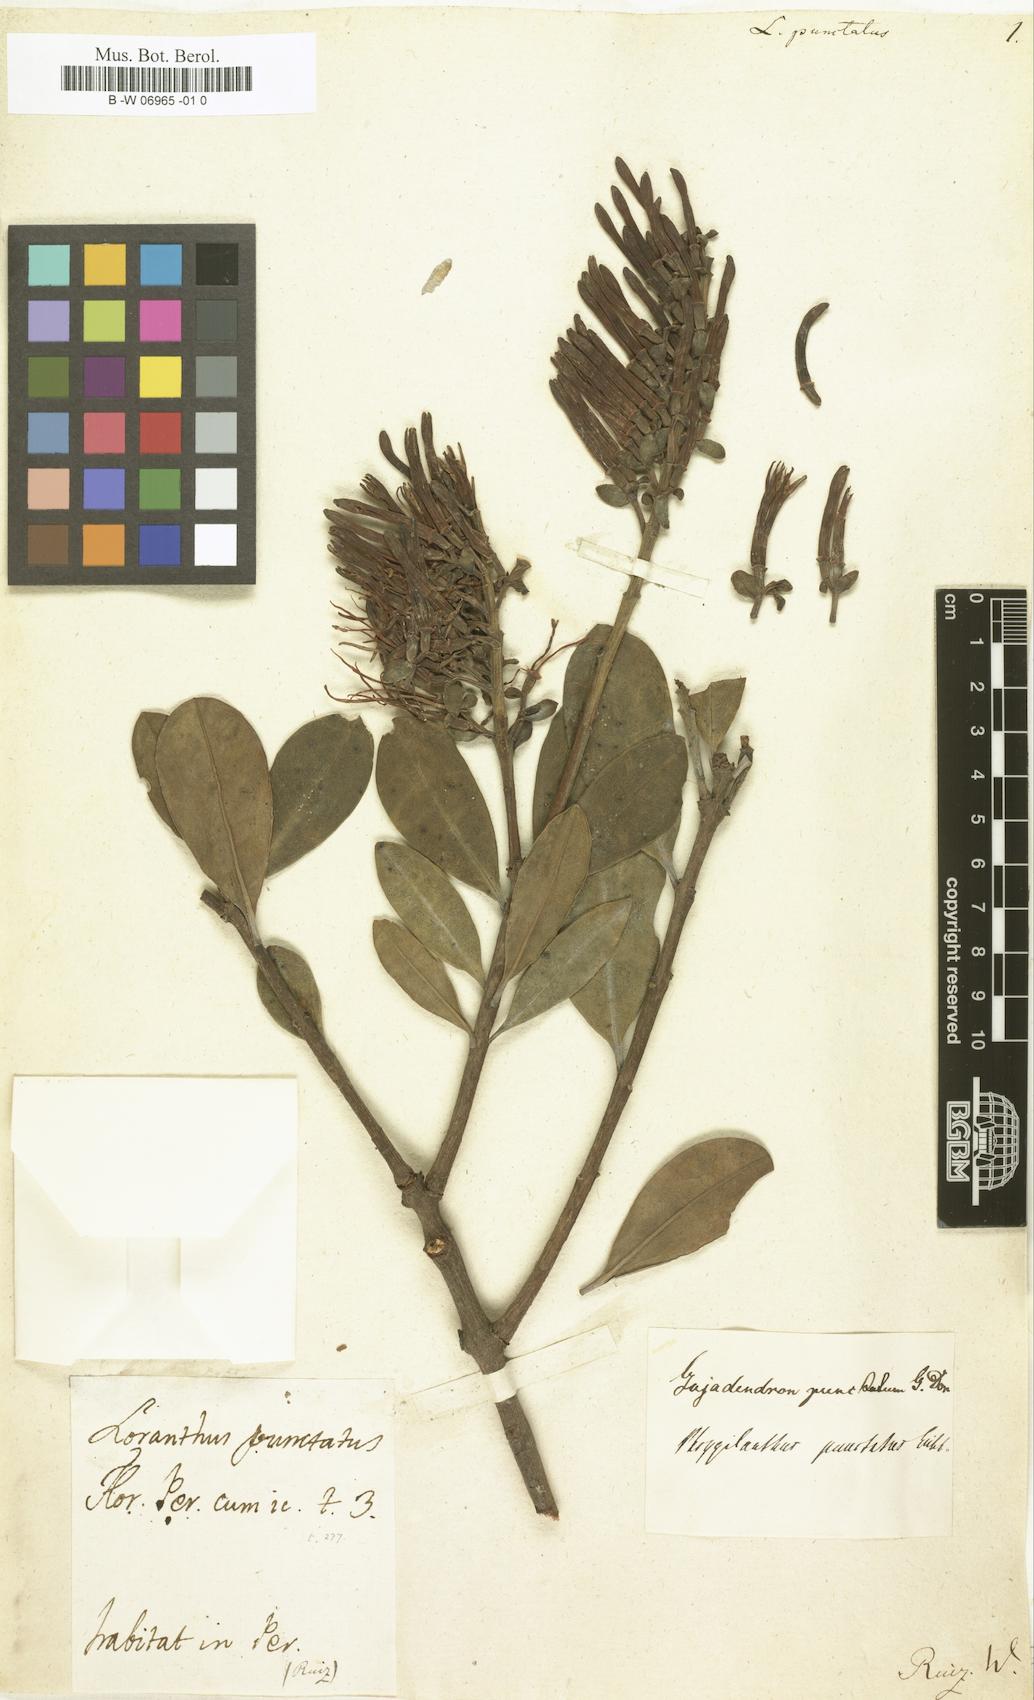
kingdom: Plantae
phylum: Tracheophyta
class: Magnoliopsida
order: Santalales
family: Loranthaceae
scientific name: Loranthaceae
